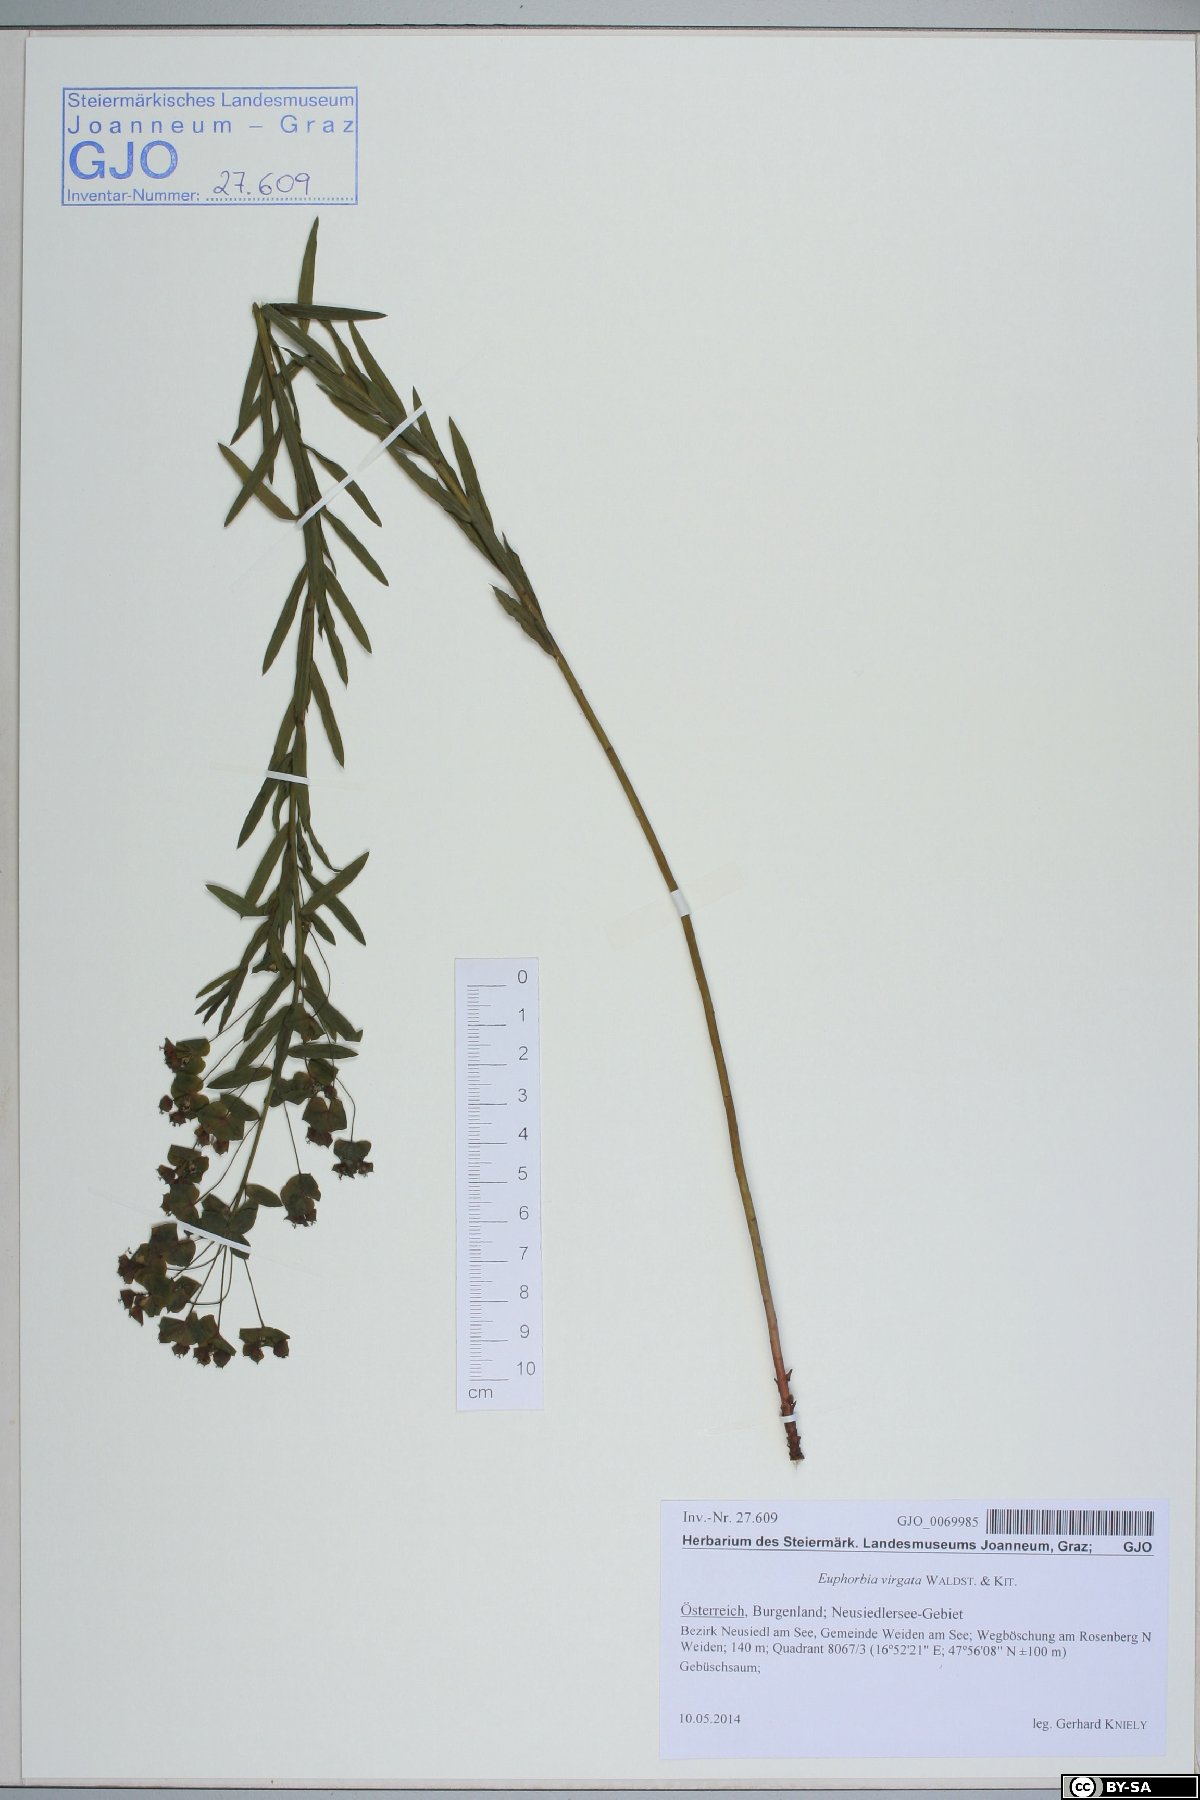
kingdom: Plantae
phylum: Tracheophyta
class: Magnoliopsida
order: Malpighiales
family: Euphorbiaceae
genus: Euphorbia
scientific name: Euphorbia saratoi
